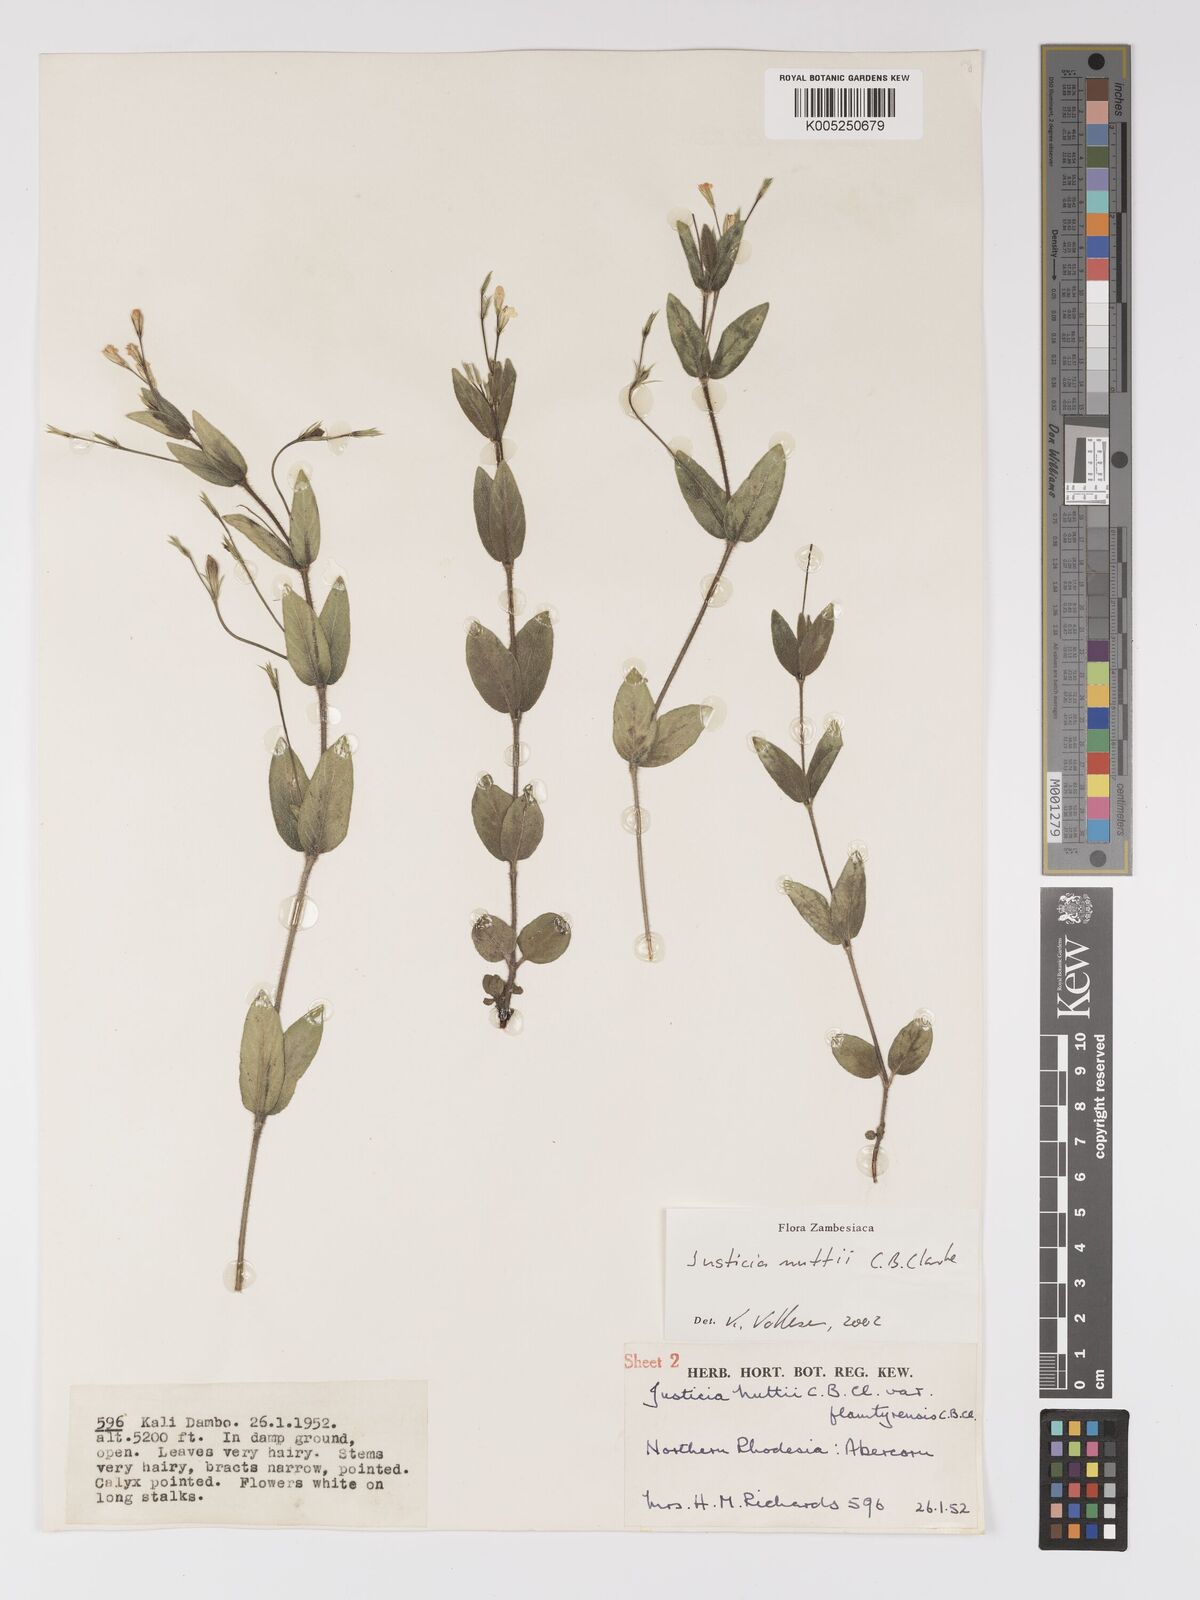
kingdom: Plantae
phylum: Tracheophyta
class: Magnoliopsida
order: Lamiales
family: Acanthaceae
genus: Justicia
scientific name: Justicia nuttii
